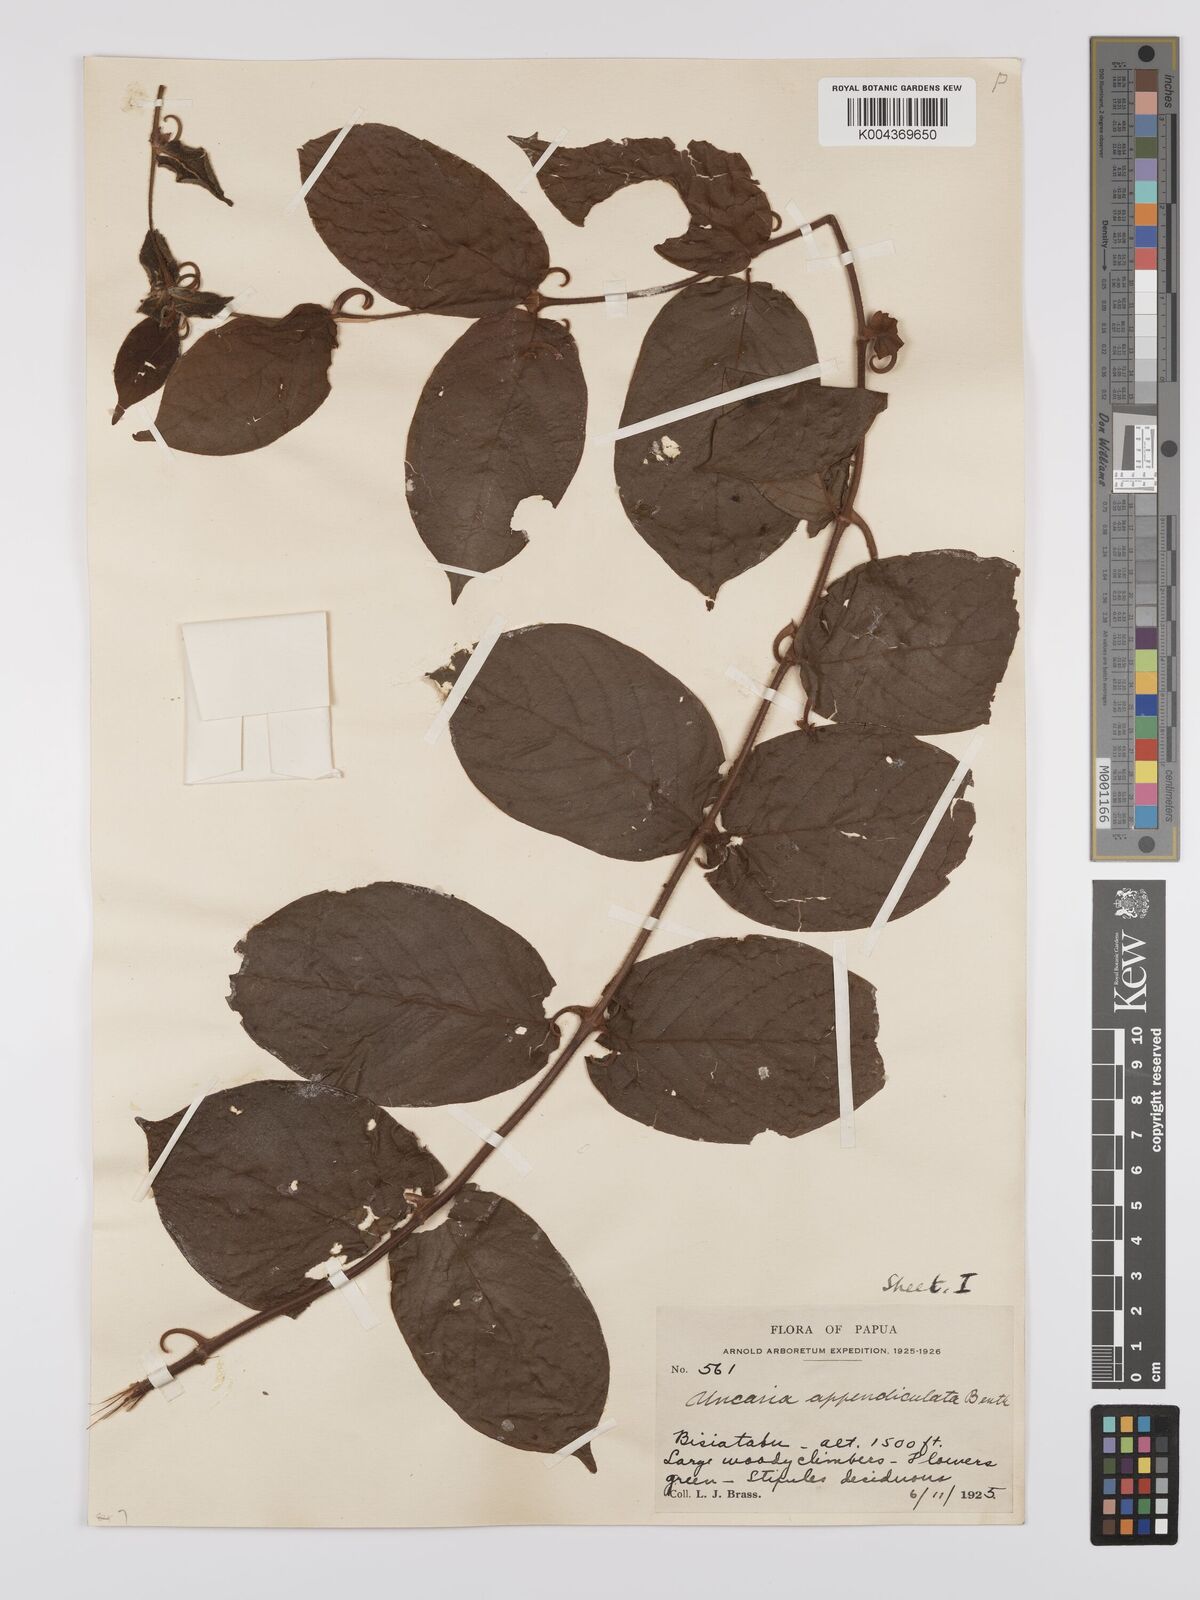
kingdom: Plantae
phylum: Tracheophyta
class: Magnoliopsida
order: Gentianales
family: Rubiaceae
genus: Uncaria
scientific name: Uncaria lanosa
